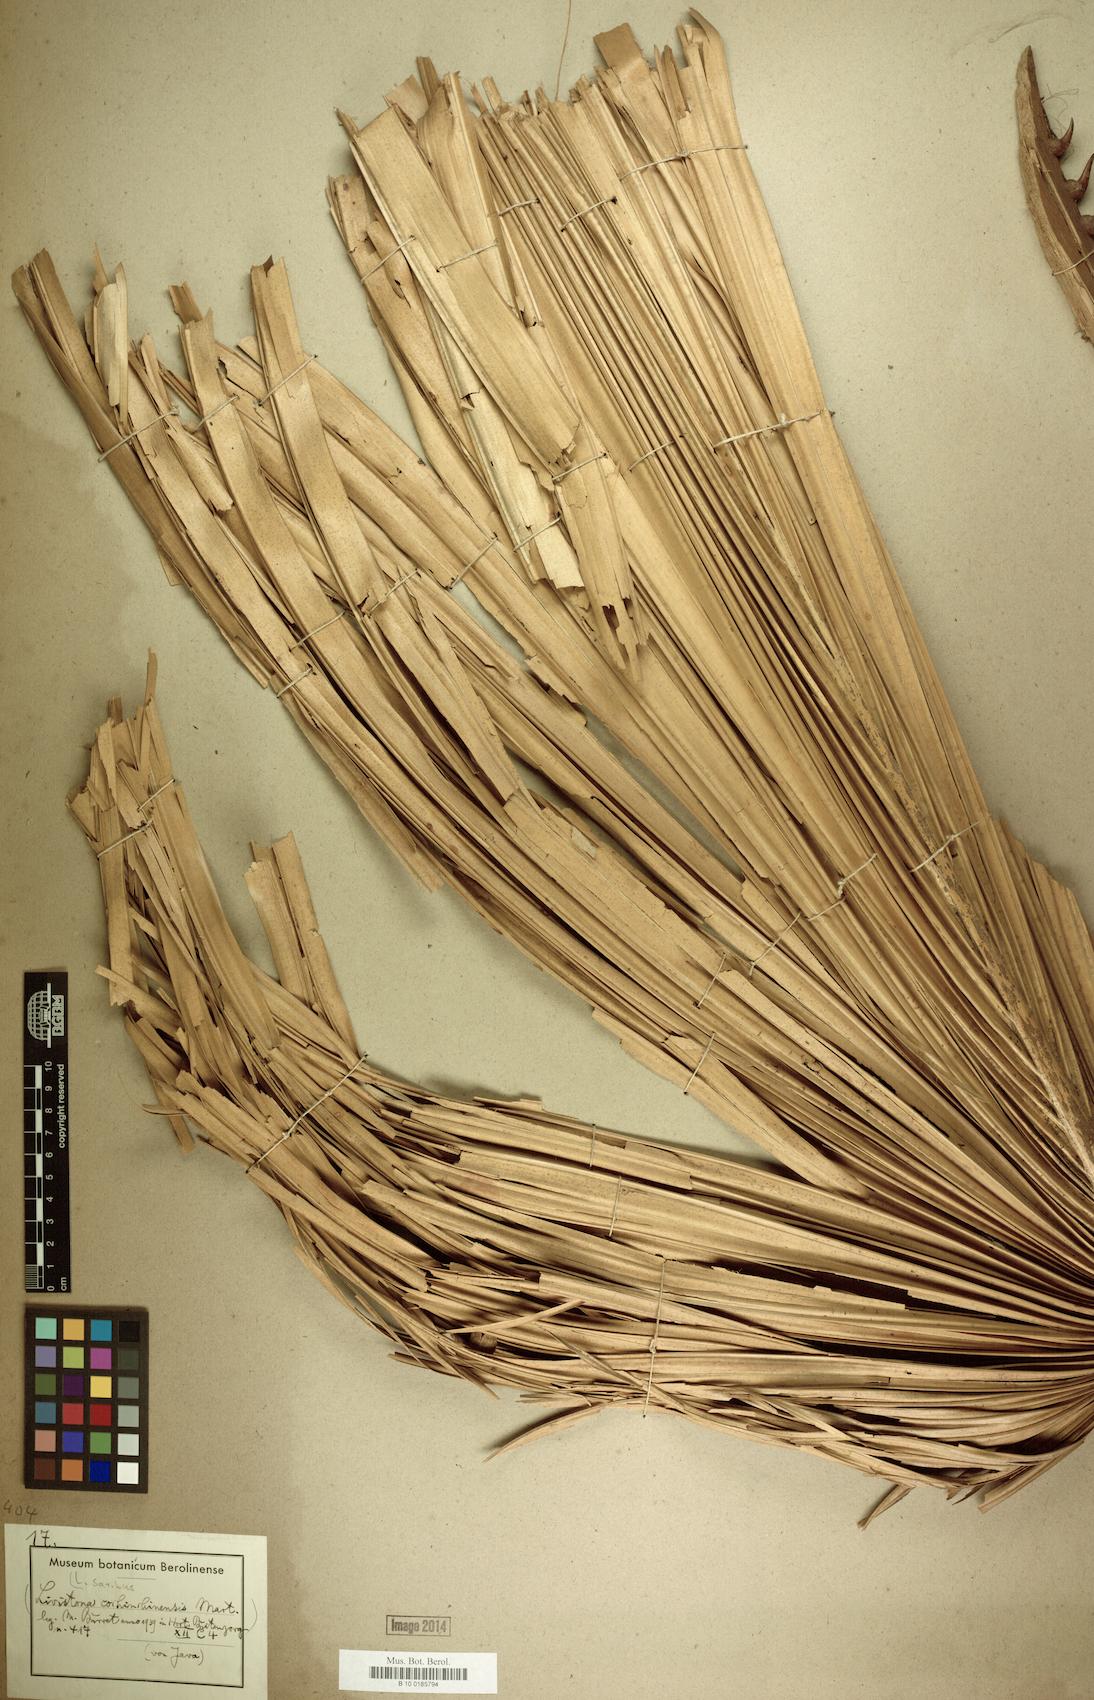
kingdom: Plantae
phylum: Tracheophyta
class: Liliopsida
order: Arecales
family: Arecaceae
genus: Livistona
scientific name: Livistona saribus
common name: Taraw palm
